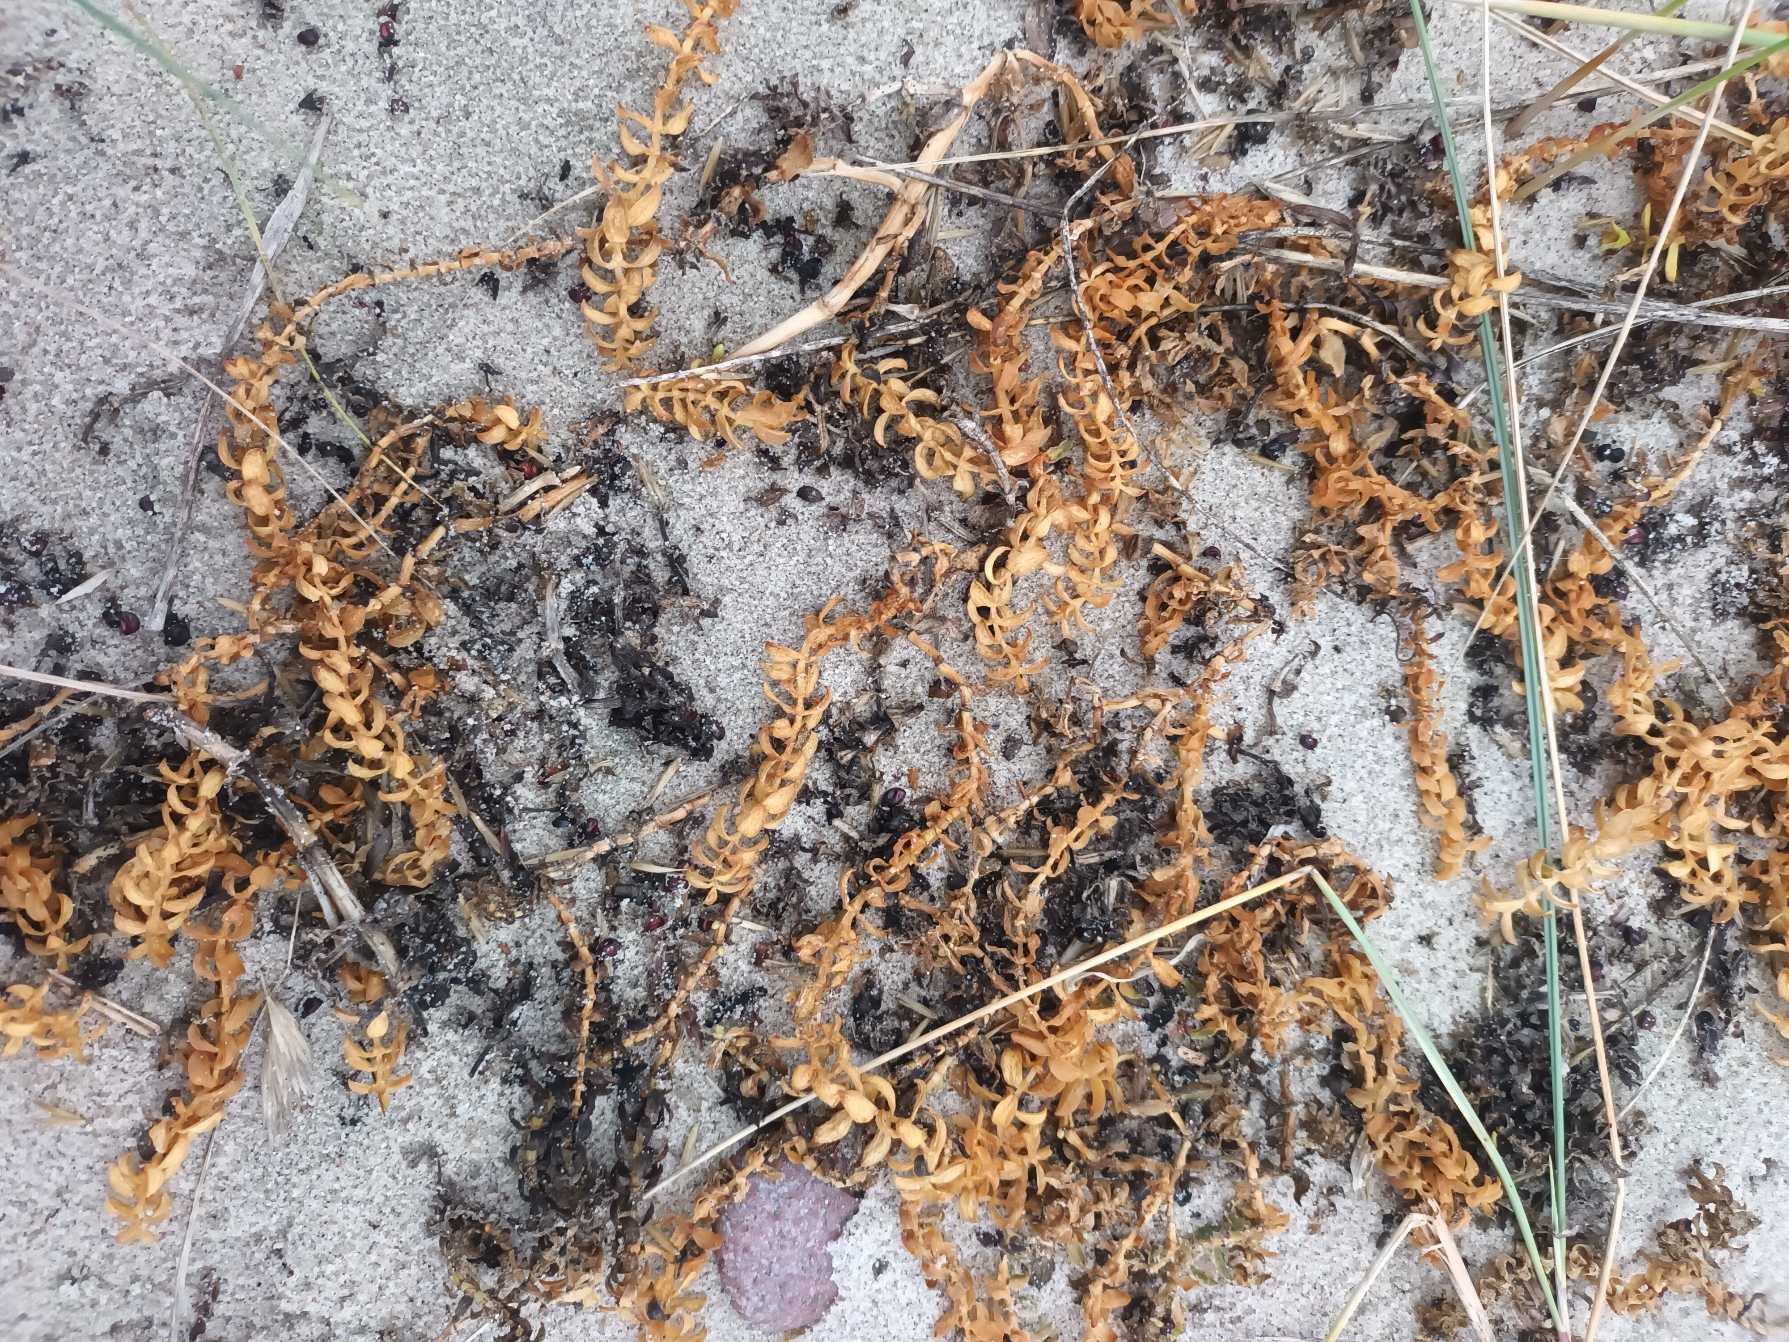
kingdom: Plantae
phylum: Tracheophyta
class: Magnoliopsida
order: Caryophyllales
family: Caryophyllaceae
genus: Honckenya
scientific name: Honckenya peploides
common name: Strandarve
